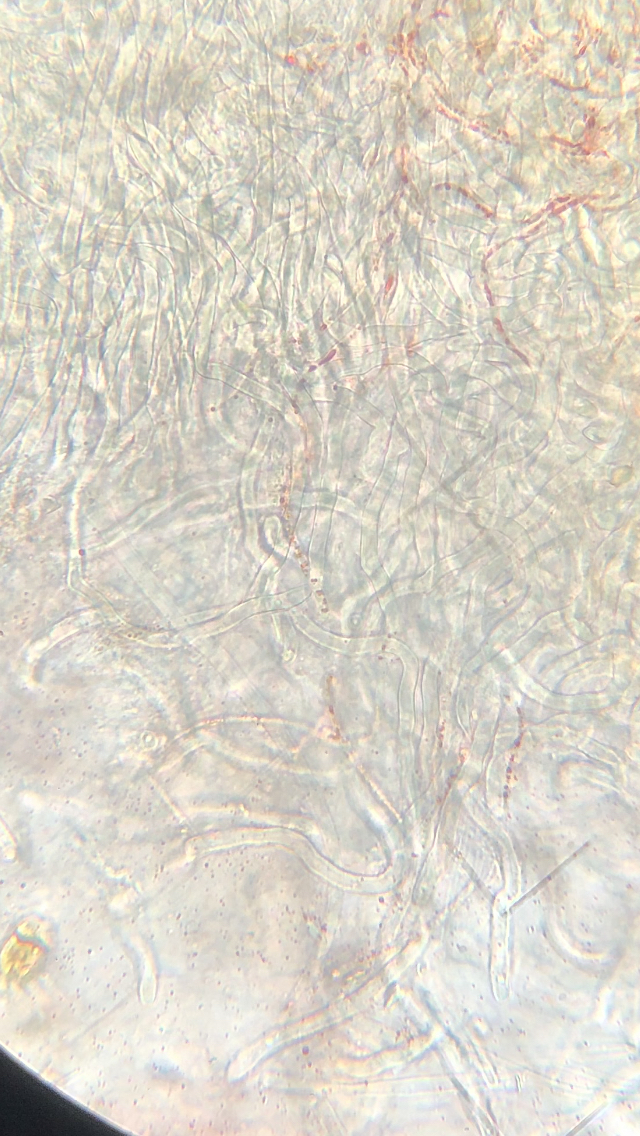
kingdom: Fungi
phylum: Ascomycota
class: Pezizomycetes
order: Pezizales
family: Sarcoscyphaceae
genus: Sarcoscypha
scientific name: Sarcoscypha austriaca
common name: krølhåret pragtbæger
